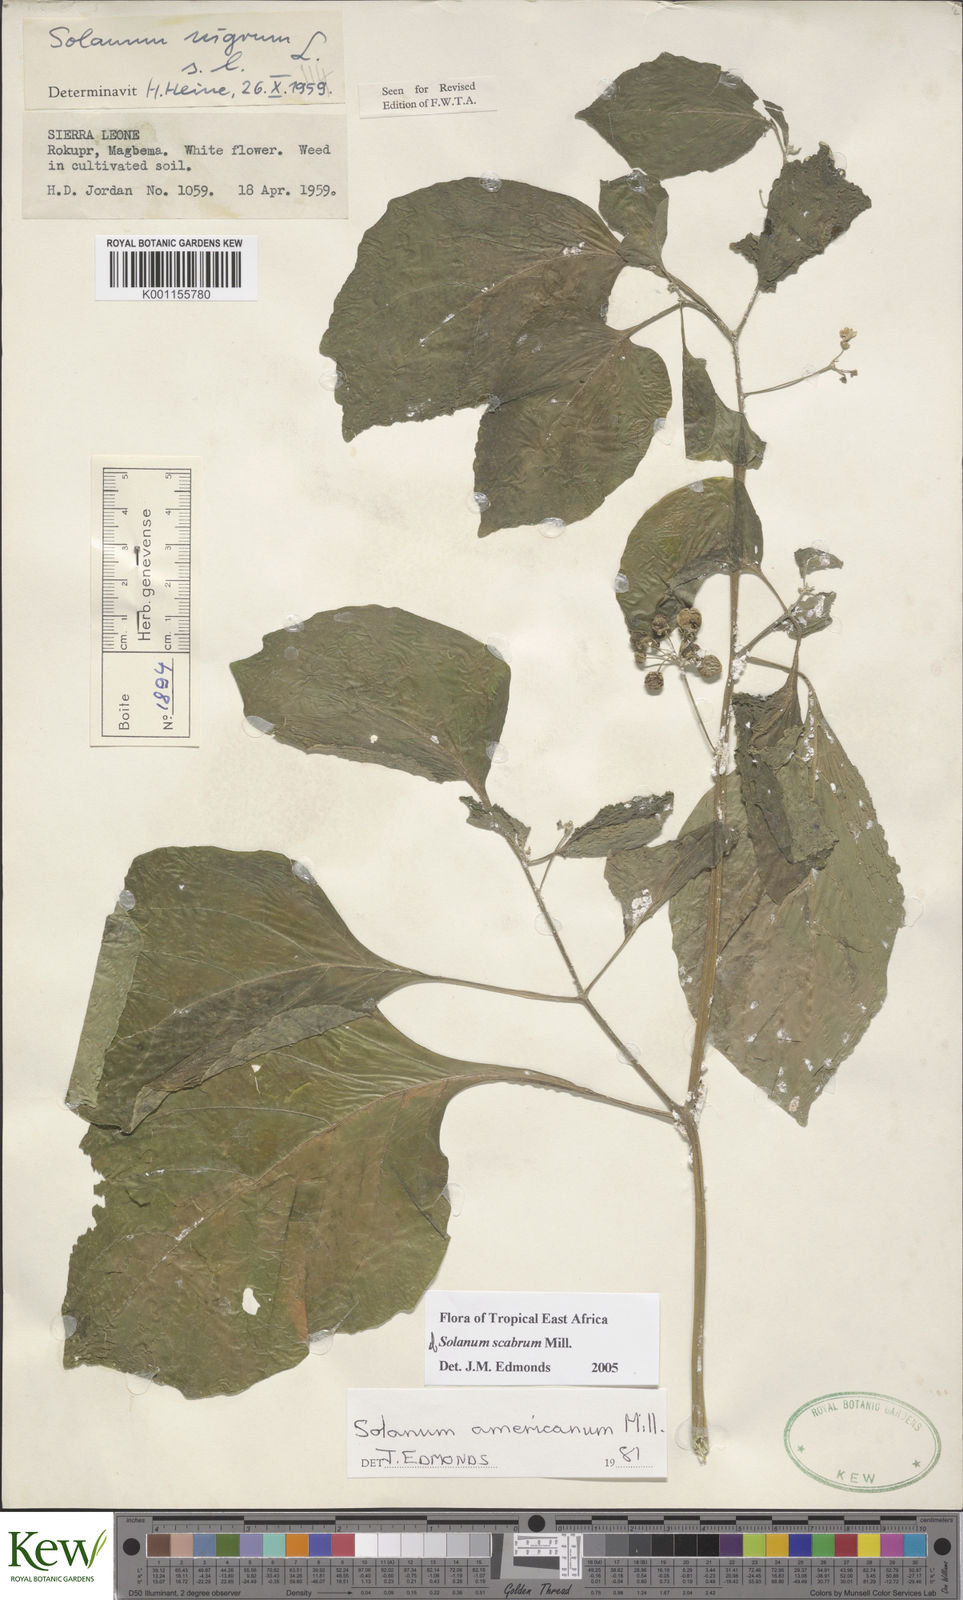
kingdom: Plantae
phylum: Tracheophyta
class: Magnoliopsida
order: Solanales
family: Solanaceae
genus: Solanum
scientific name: Solanum scabrum
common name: Garden-huckleberry
